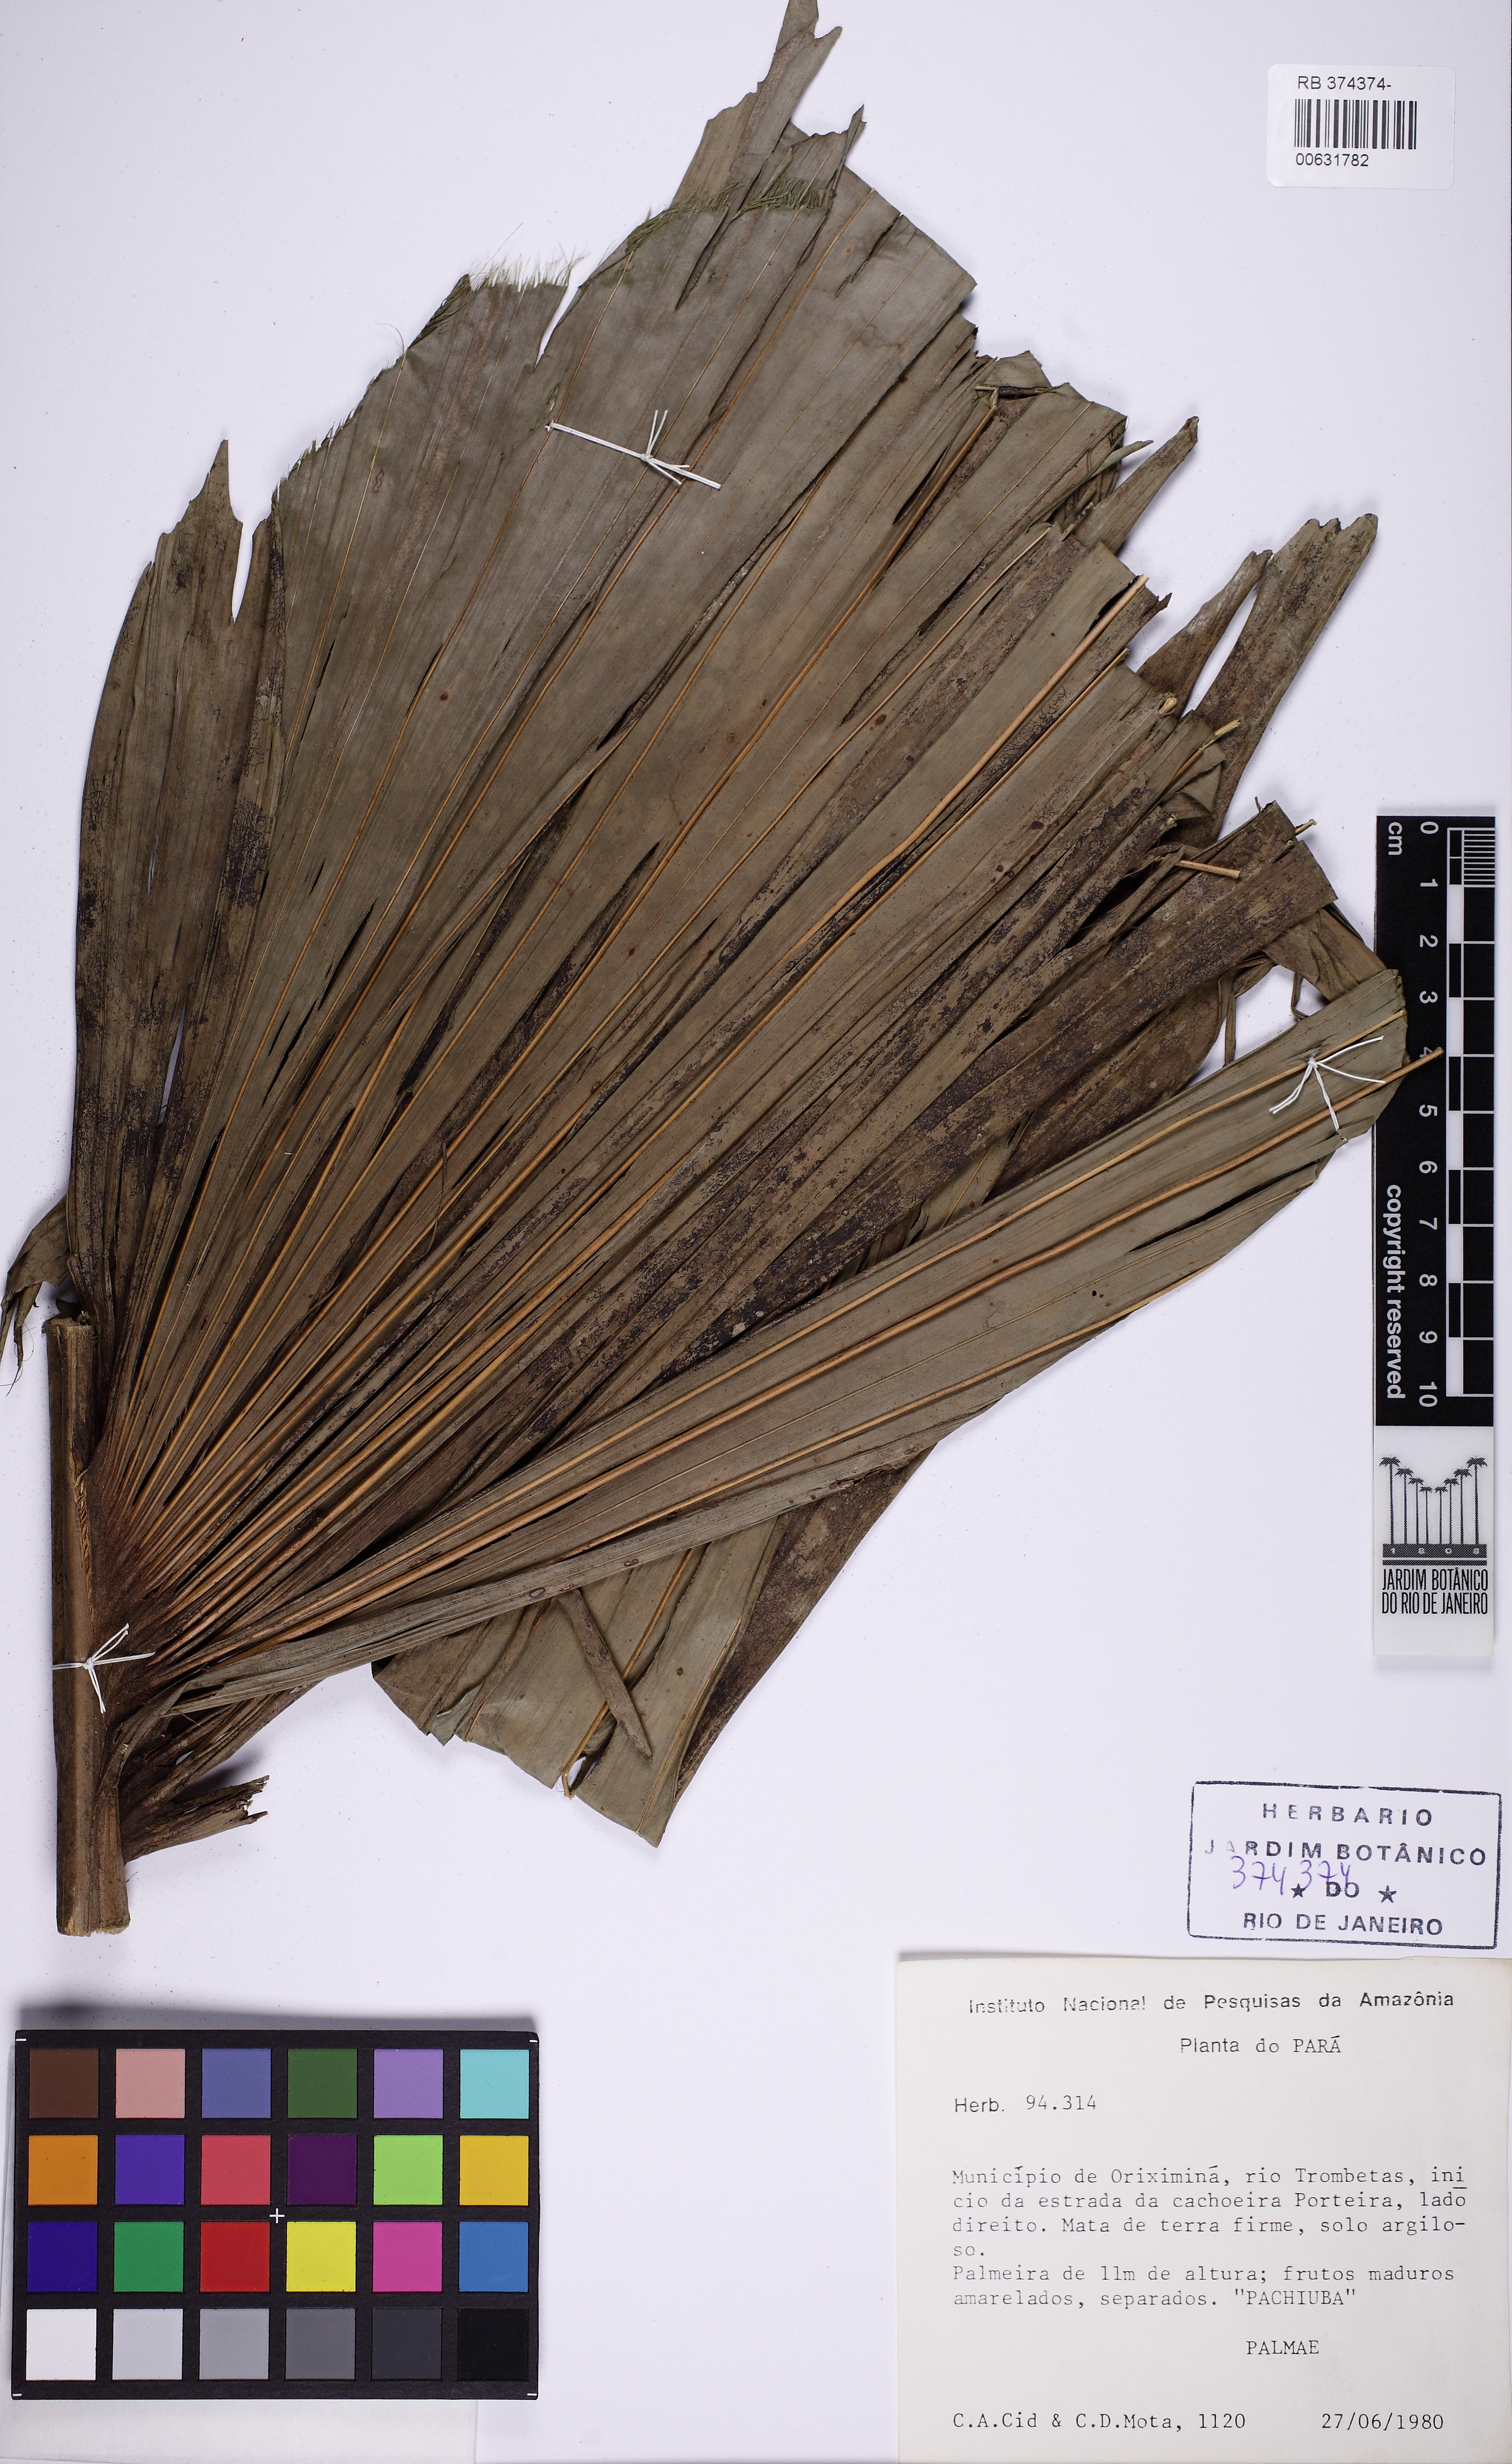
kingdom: Plantae
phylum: Tracheophyta
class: Liliopsida
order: Arecales
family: Arecaceae
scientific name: Arecaceae
